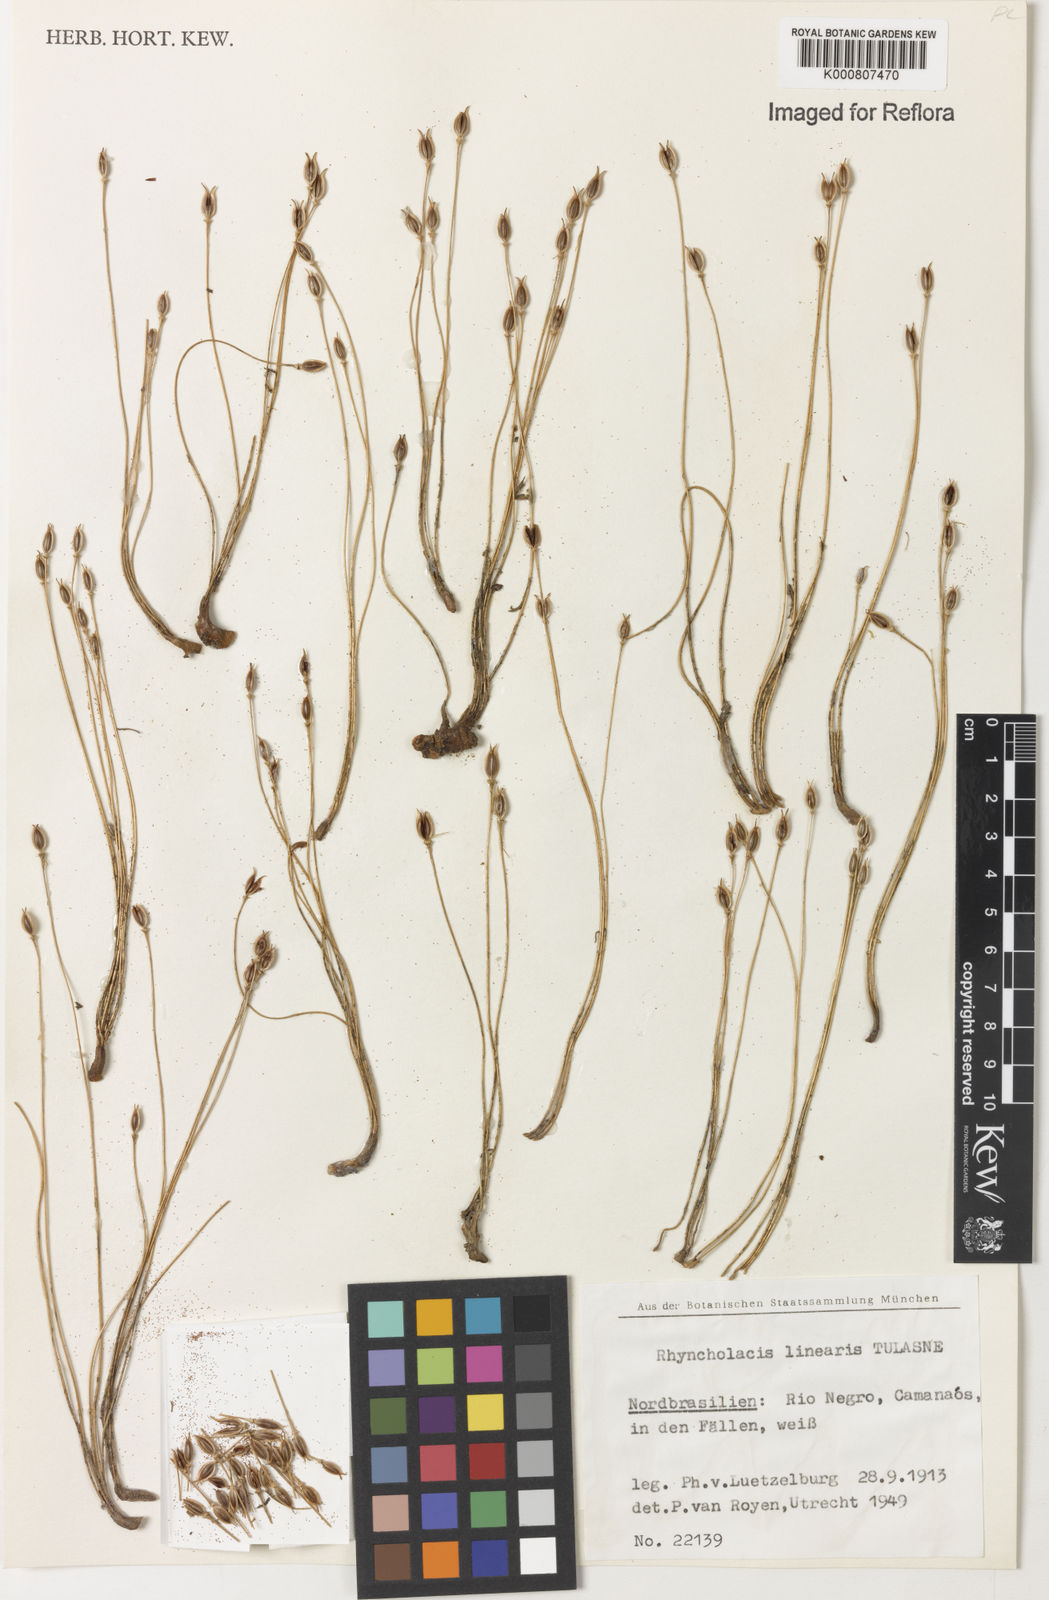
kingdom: Plantae
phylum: Tracheophyta
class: Magnoliopsida
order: Malpighiales
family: Podostemaceae
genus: Rhyncholacis
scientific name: Rhyncholacis linearis
